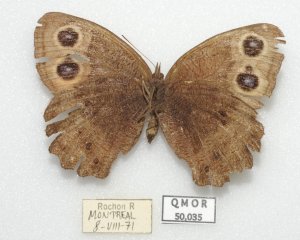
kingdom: Animalia
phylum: Arthropoda
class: Insecta
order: Lepidoptera
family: Nymphalidae
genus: Cercyonis
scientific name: Cercyonis pegala
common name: Common Wood-Nymph
